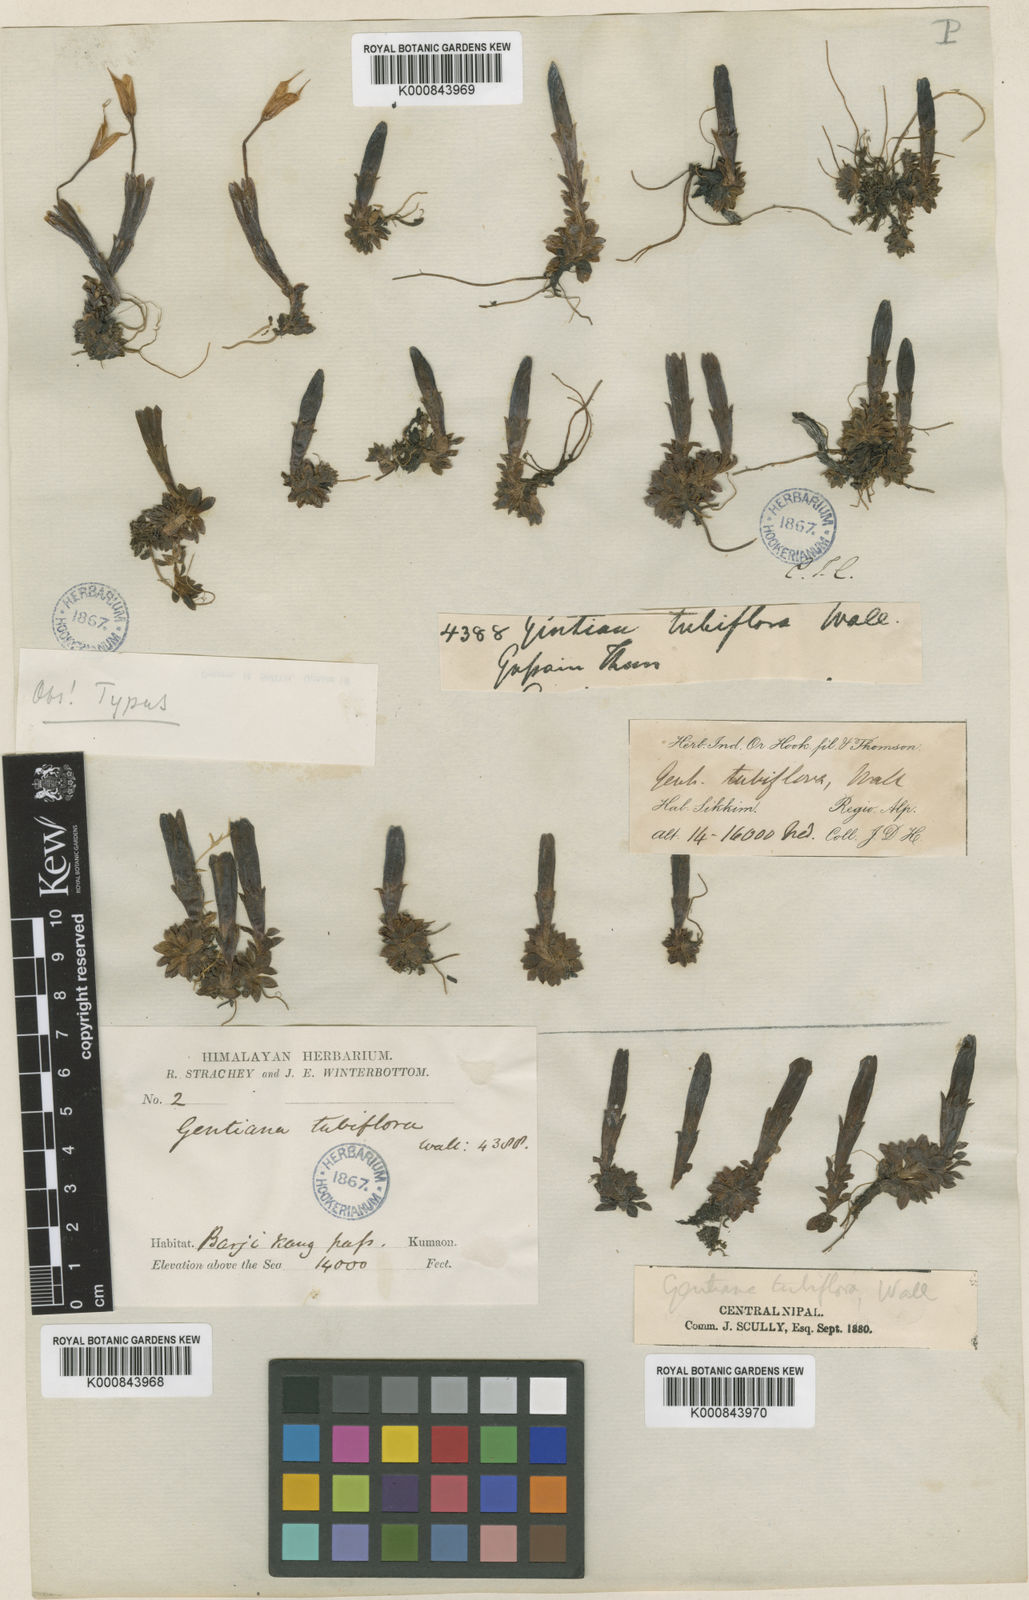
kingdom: Plantae
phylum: Tracheophyta
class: Magnoliopsida
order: Gentianales
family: Gentianaceae
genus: Gentiana
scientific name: Gentiana
